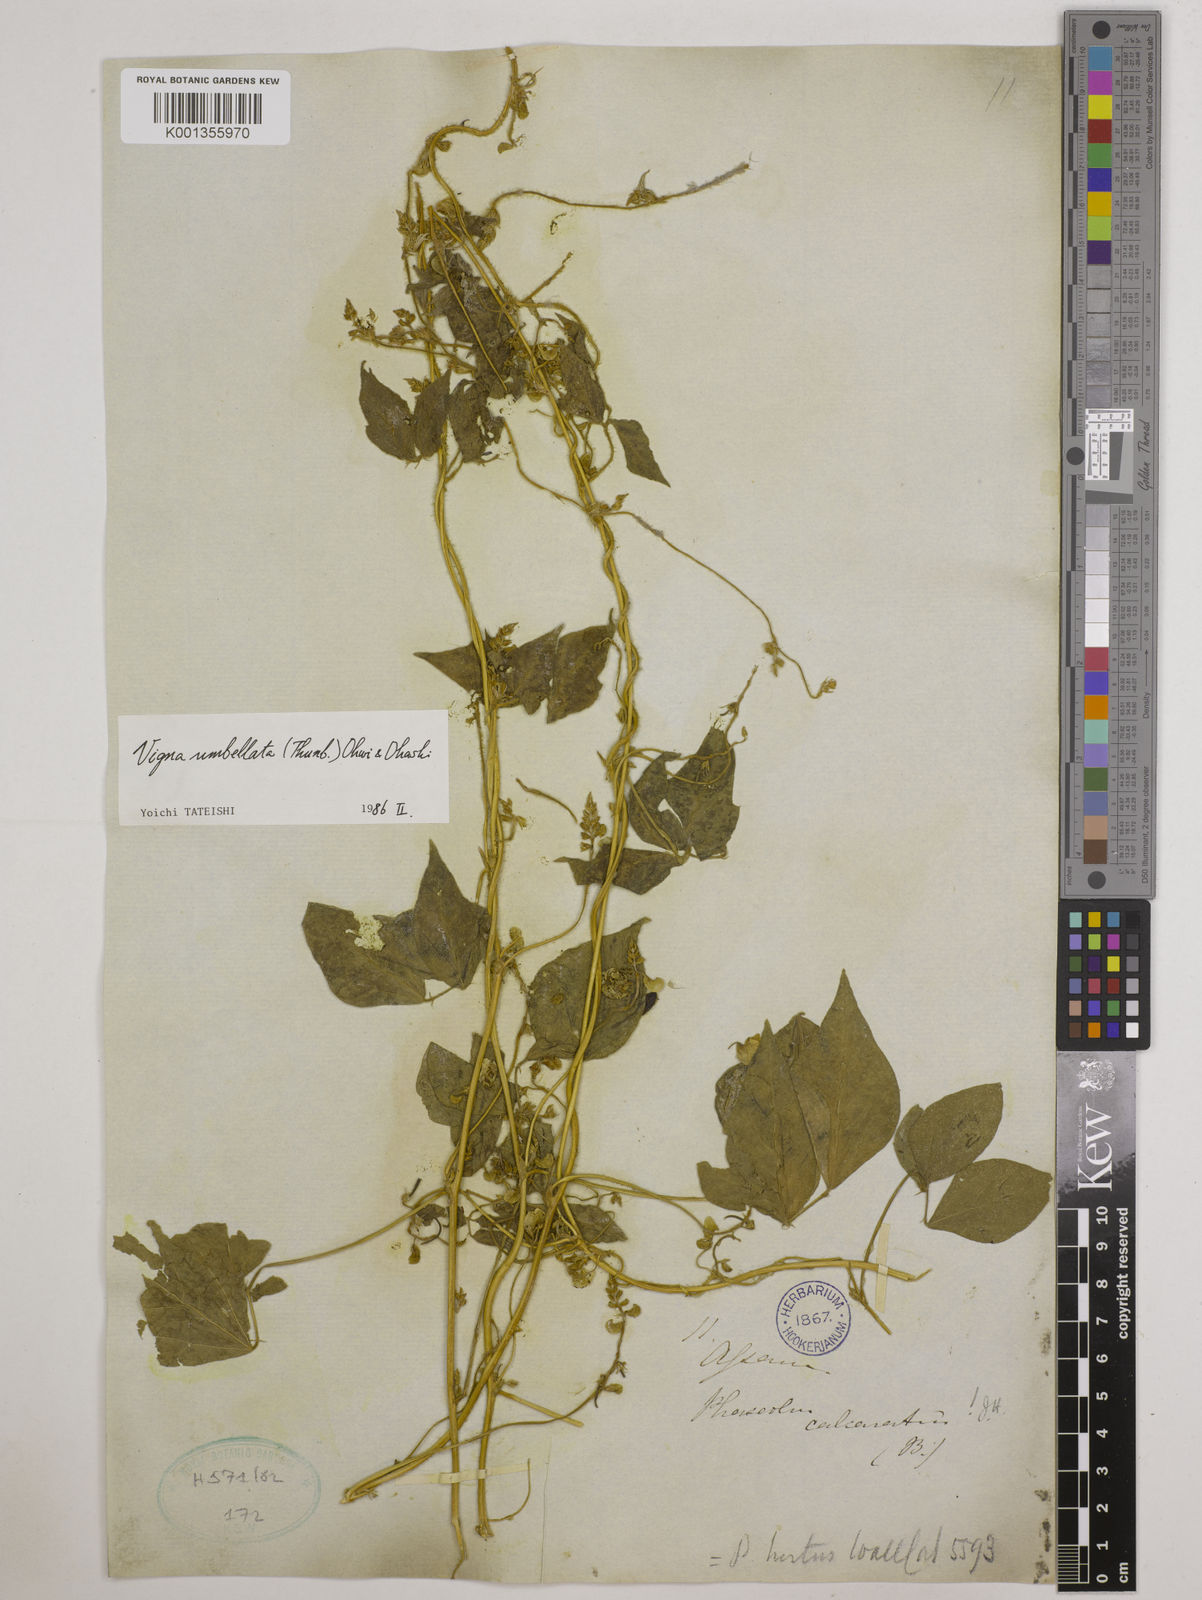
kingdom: Plantae
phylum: Tracheophyta
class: Magnoliopsida
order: Fabales
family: Fabaceae
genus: Vigna
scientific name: Vigna hirtella
